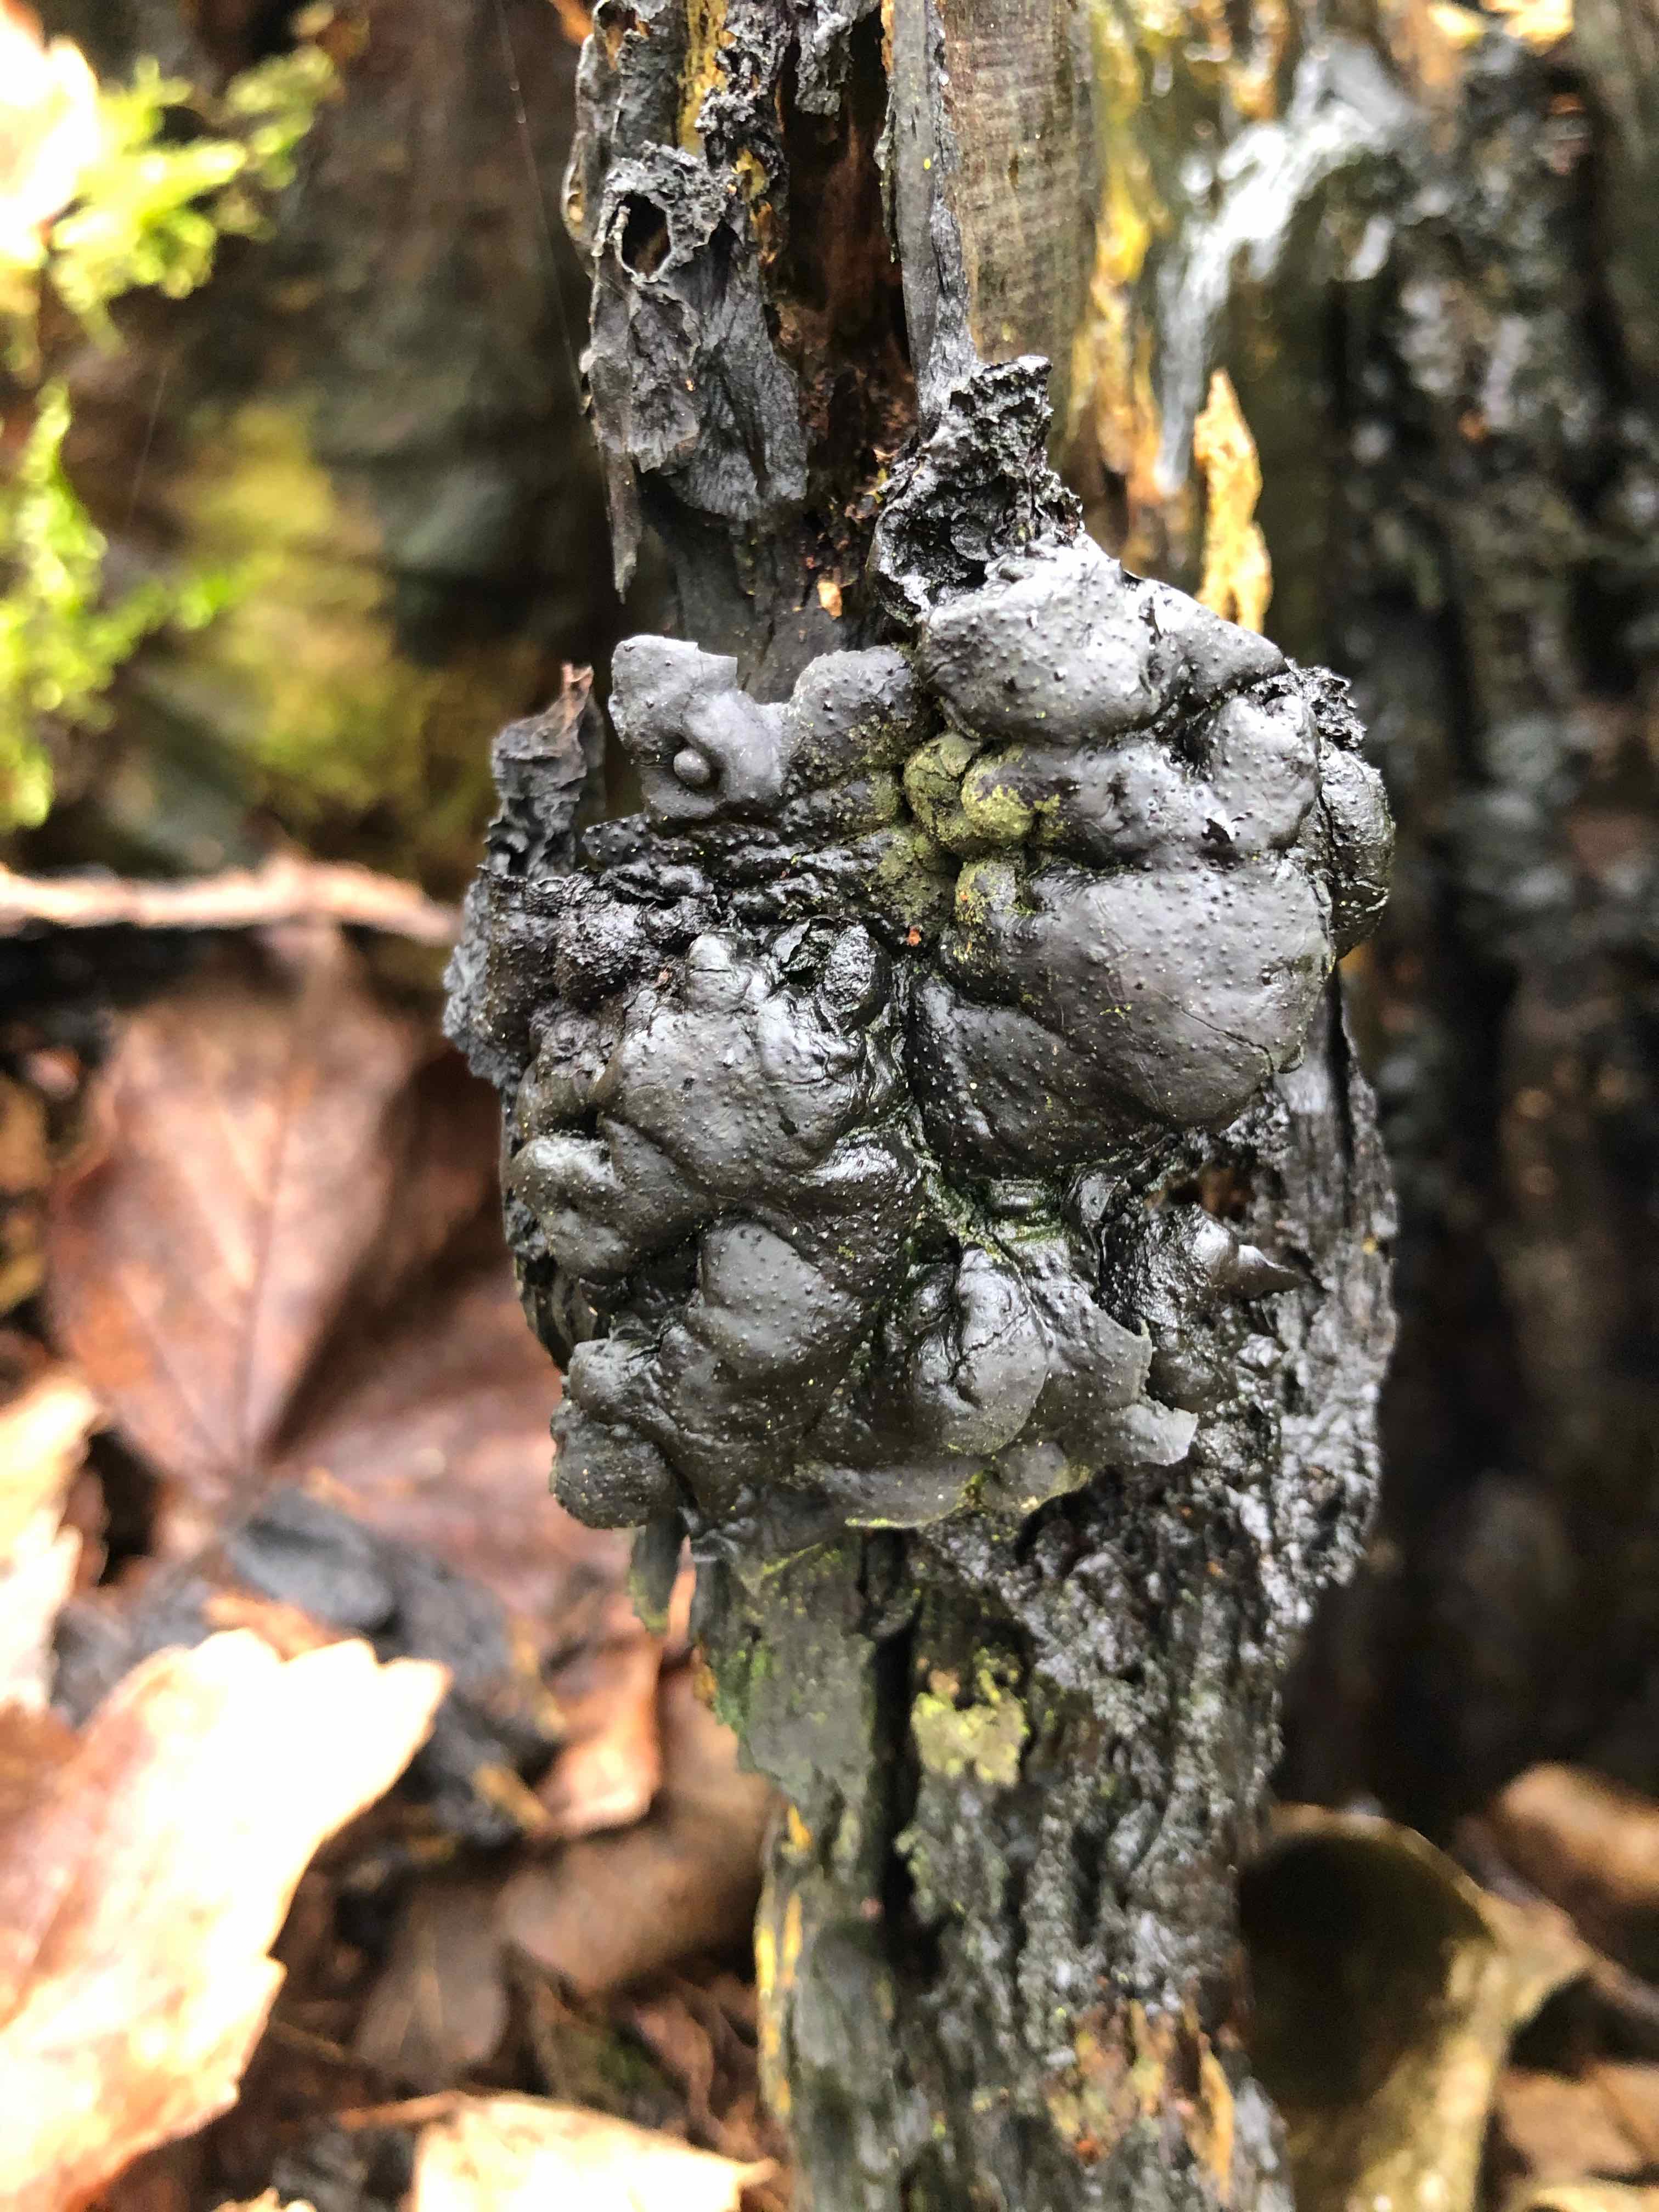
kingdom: Fungi
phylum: Ascomycota
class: Sordariomycetes
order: Xylariales
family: Xylariaceae
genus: Kretzschmaria
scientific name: Kretzschmaria deusta
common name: stor kulsvamp
